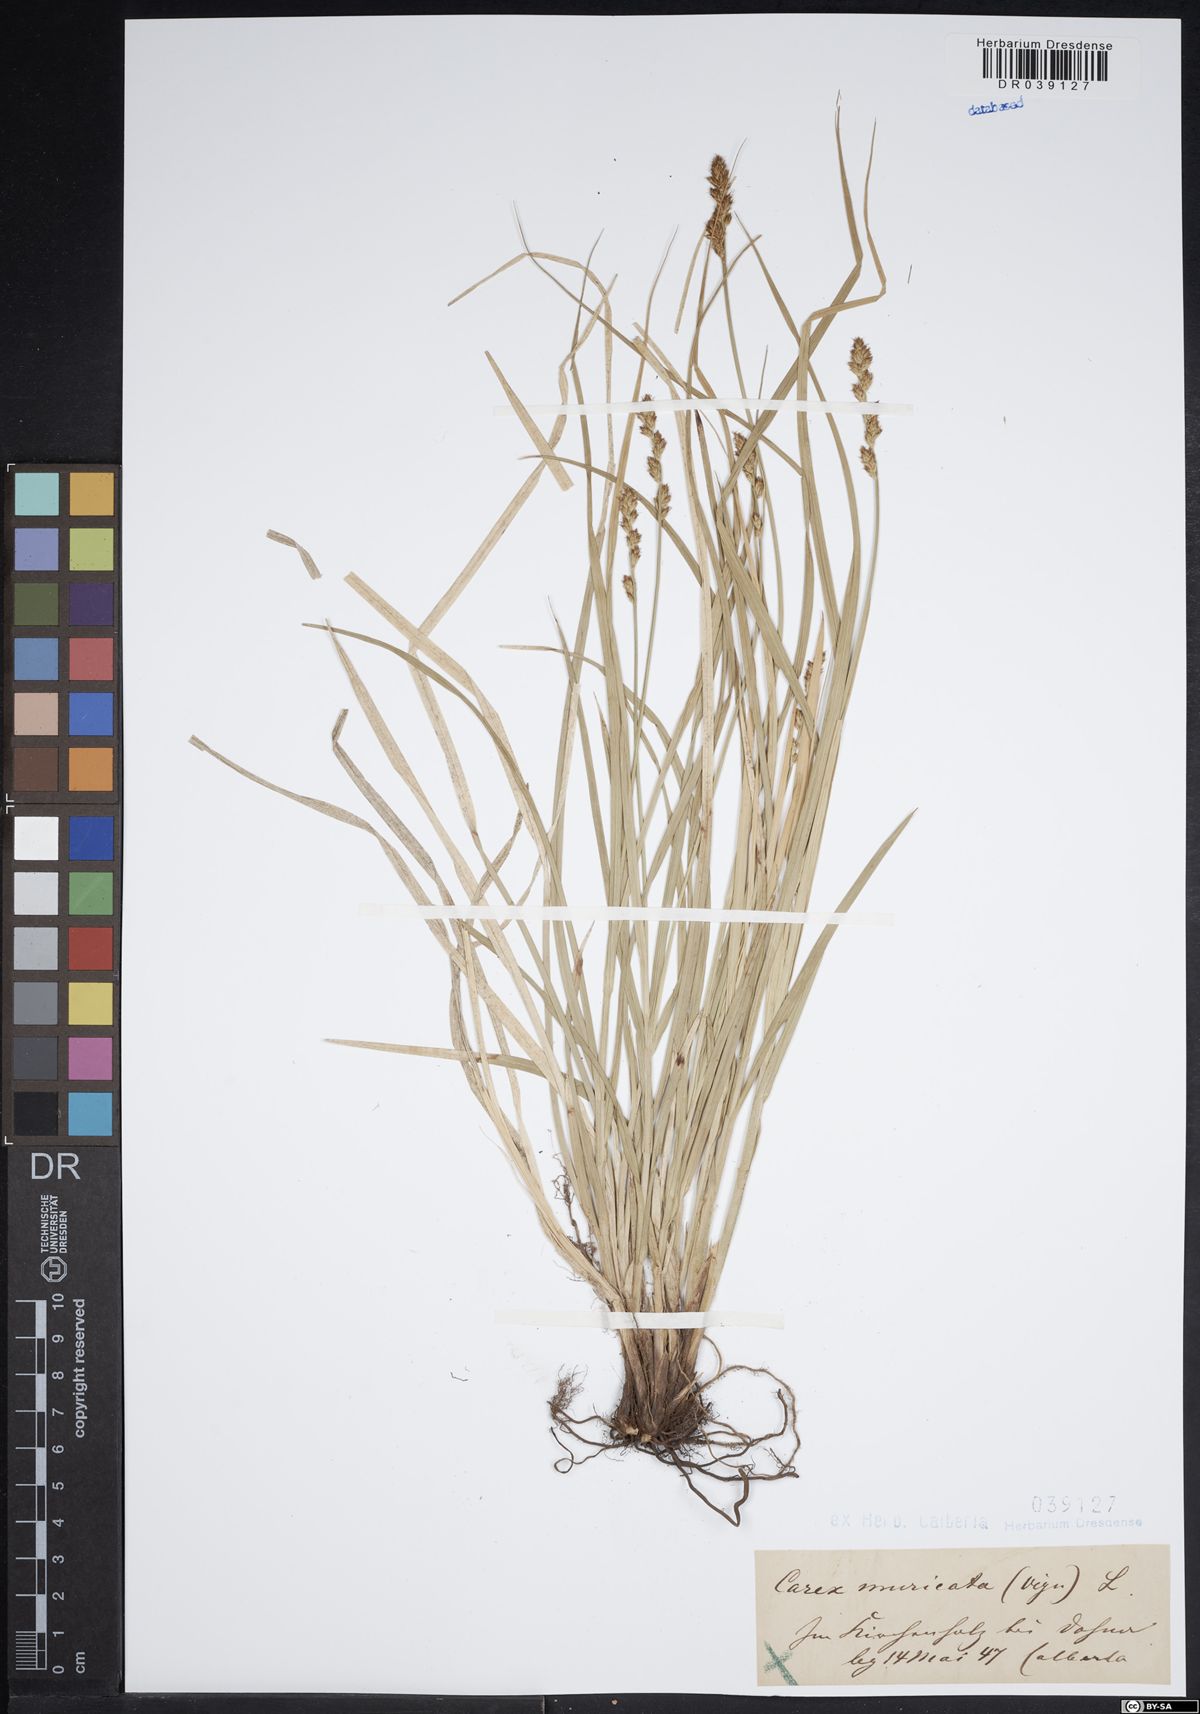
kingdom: Plantae
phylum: Tracheophyta
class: Liliopsida
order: Poales
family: Cyperaceae
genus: Carex
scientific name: Carex muricata
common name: Rough sedge
